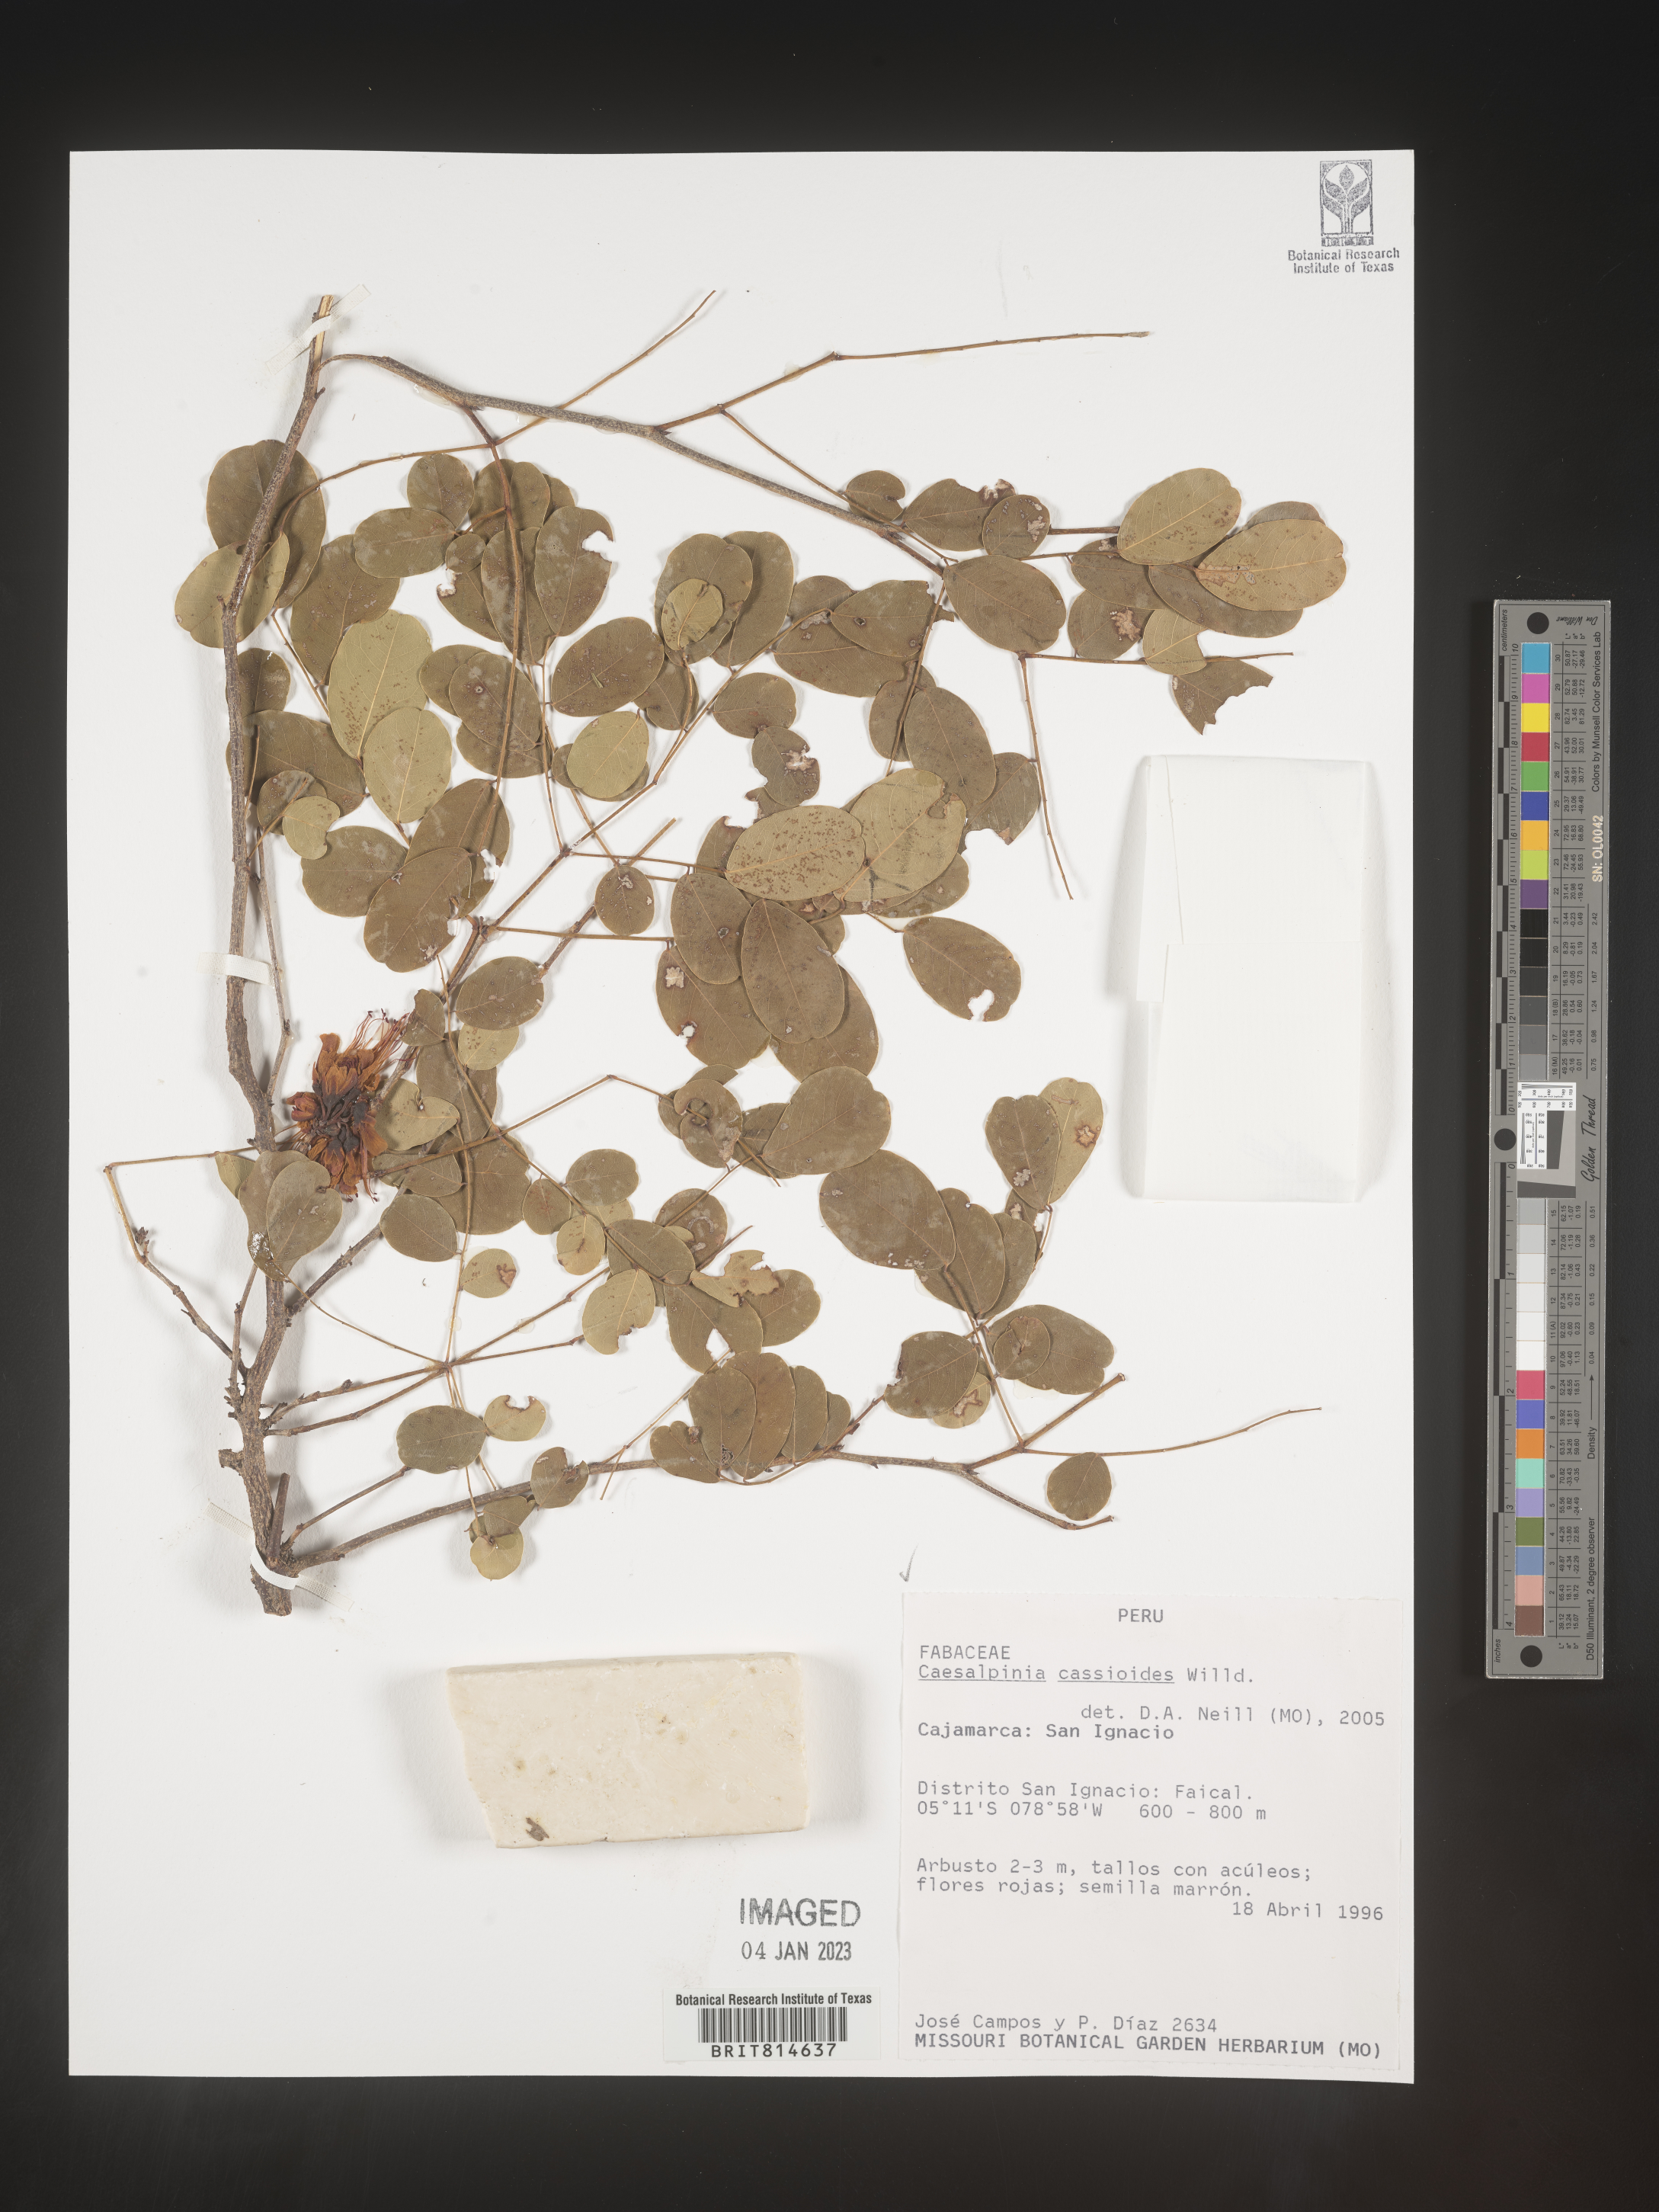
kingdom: Plantae
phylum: Tracheophyta
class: Magnoliopsida
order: Fabales
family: Fabaceae
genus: Caesalpinia
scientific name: Caesalpinia
